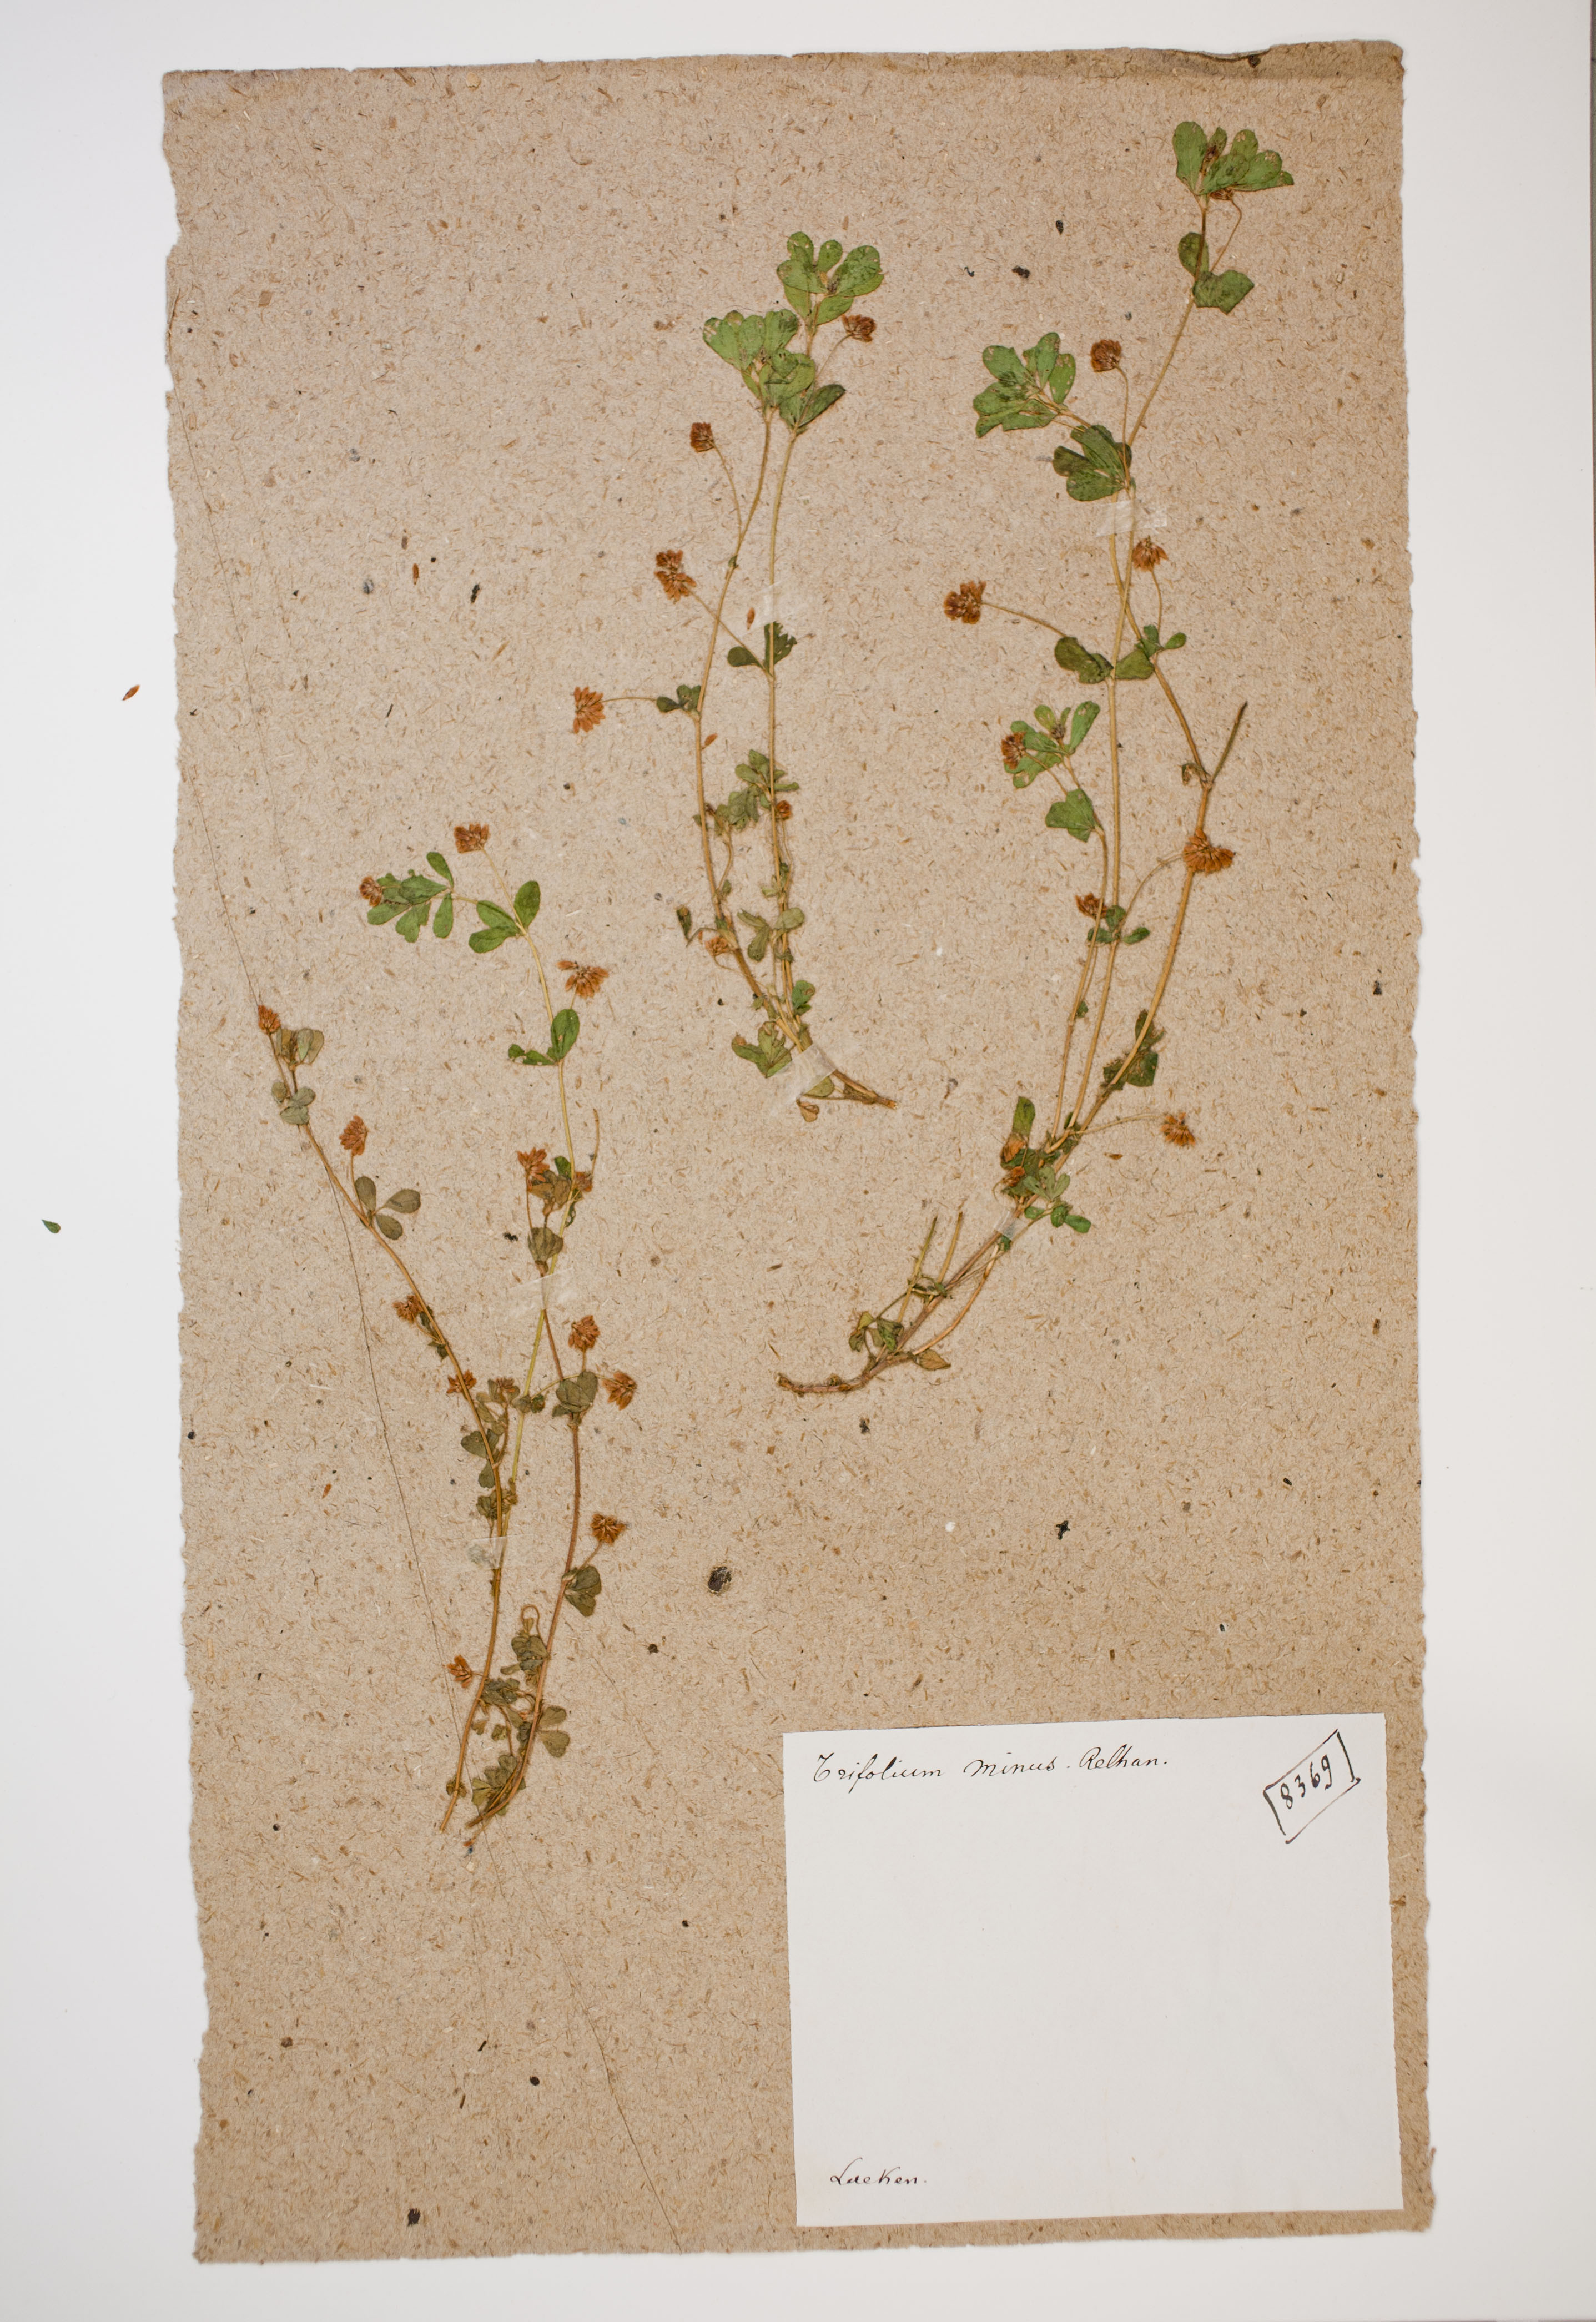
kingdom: Plantae
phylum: Tracheophyta
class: Magnoliopsida
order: Fabales
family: Fabaceae
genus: Trifolium
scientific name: Trifolium dubium
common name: Suckling clover
